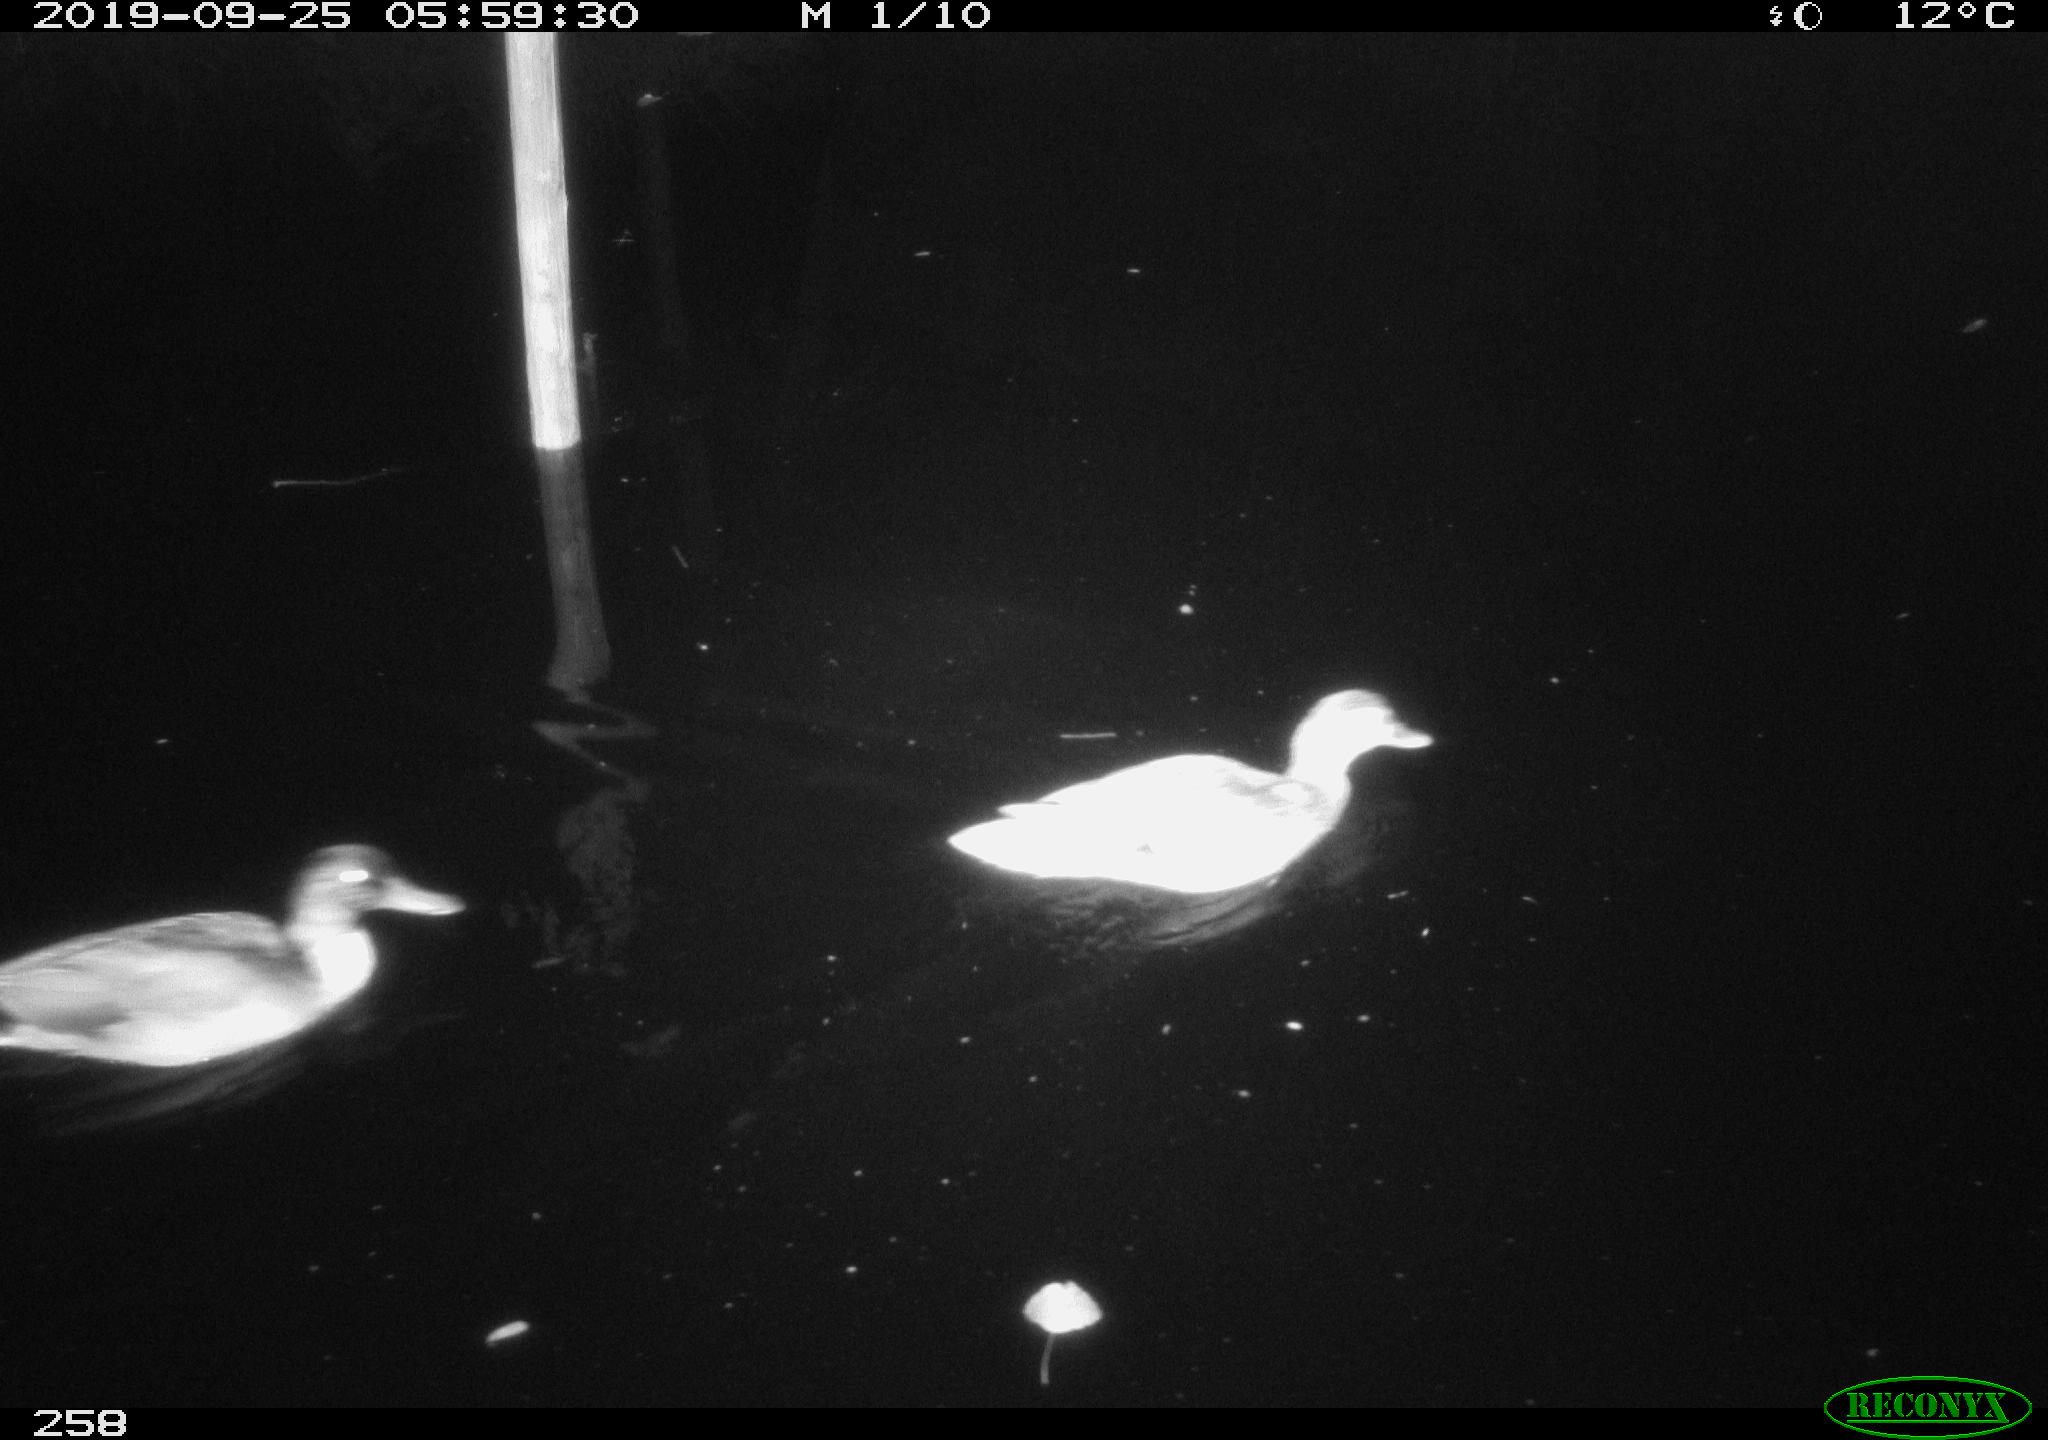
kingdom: Animalia
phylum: Chordata
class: Aves
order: Anseriformes
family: Anatidae
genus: Anas
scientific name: Anas platyrhynchos
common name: Mallard
